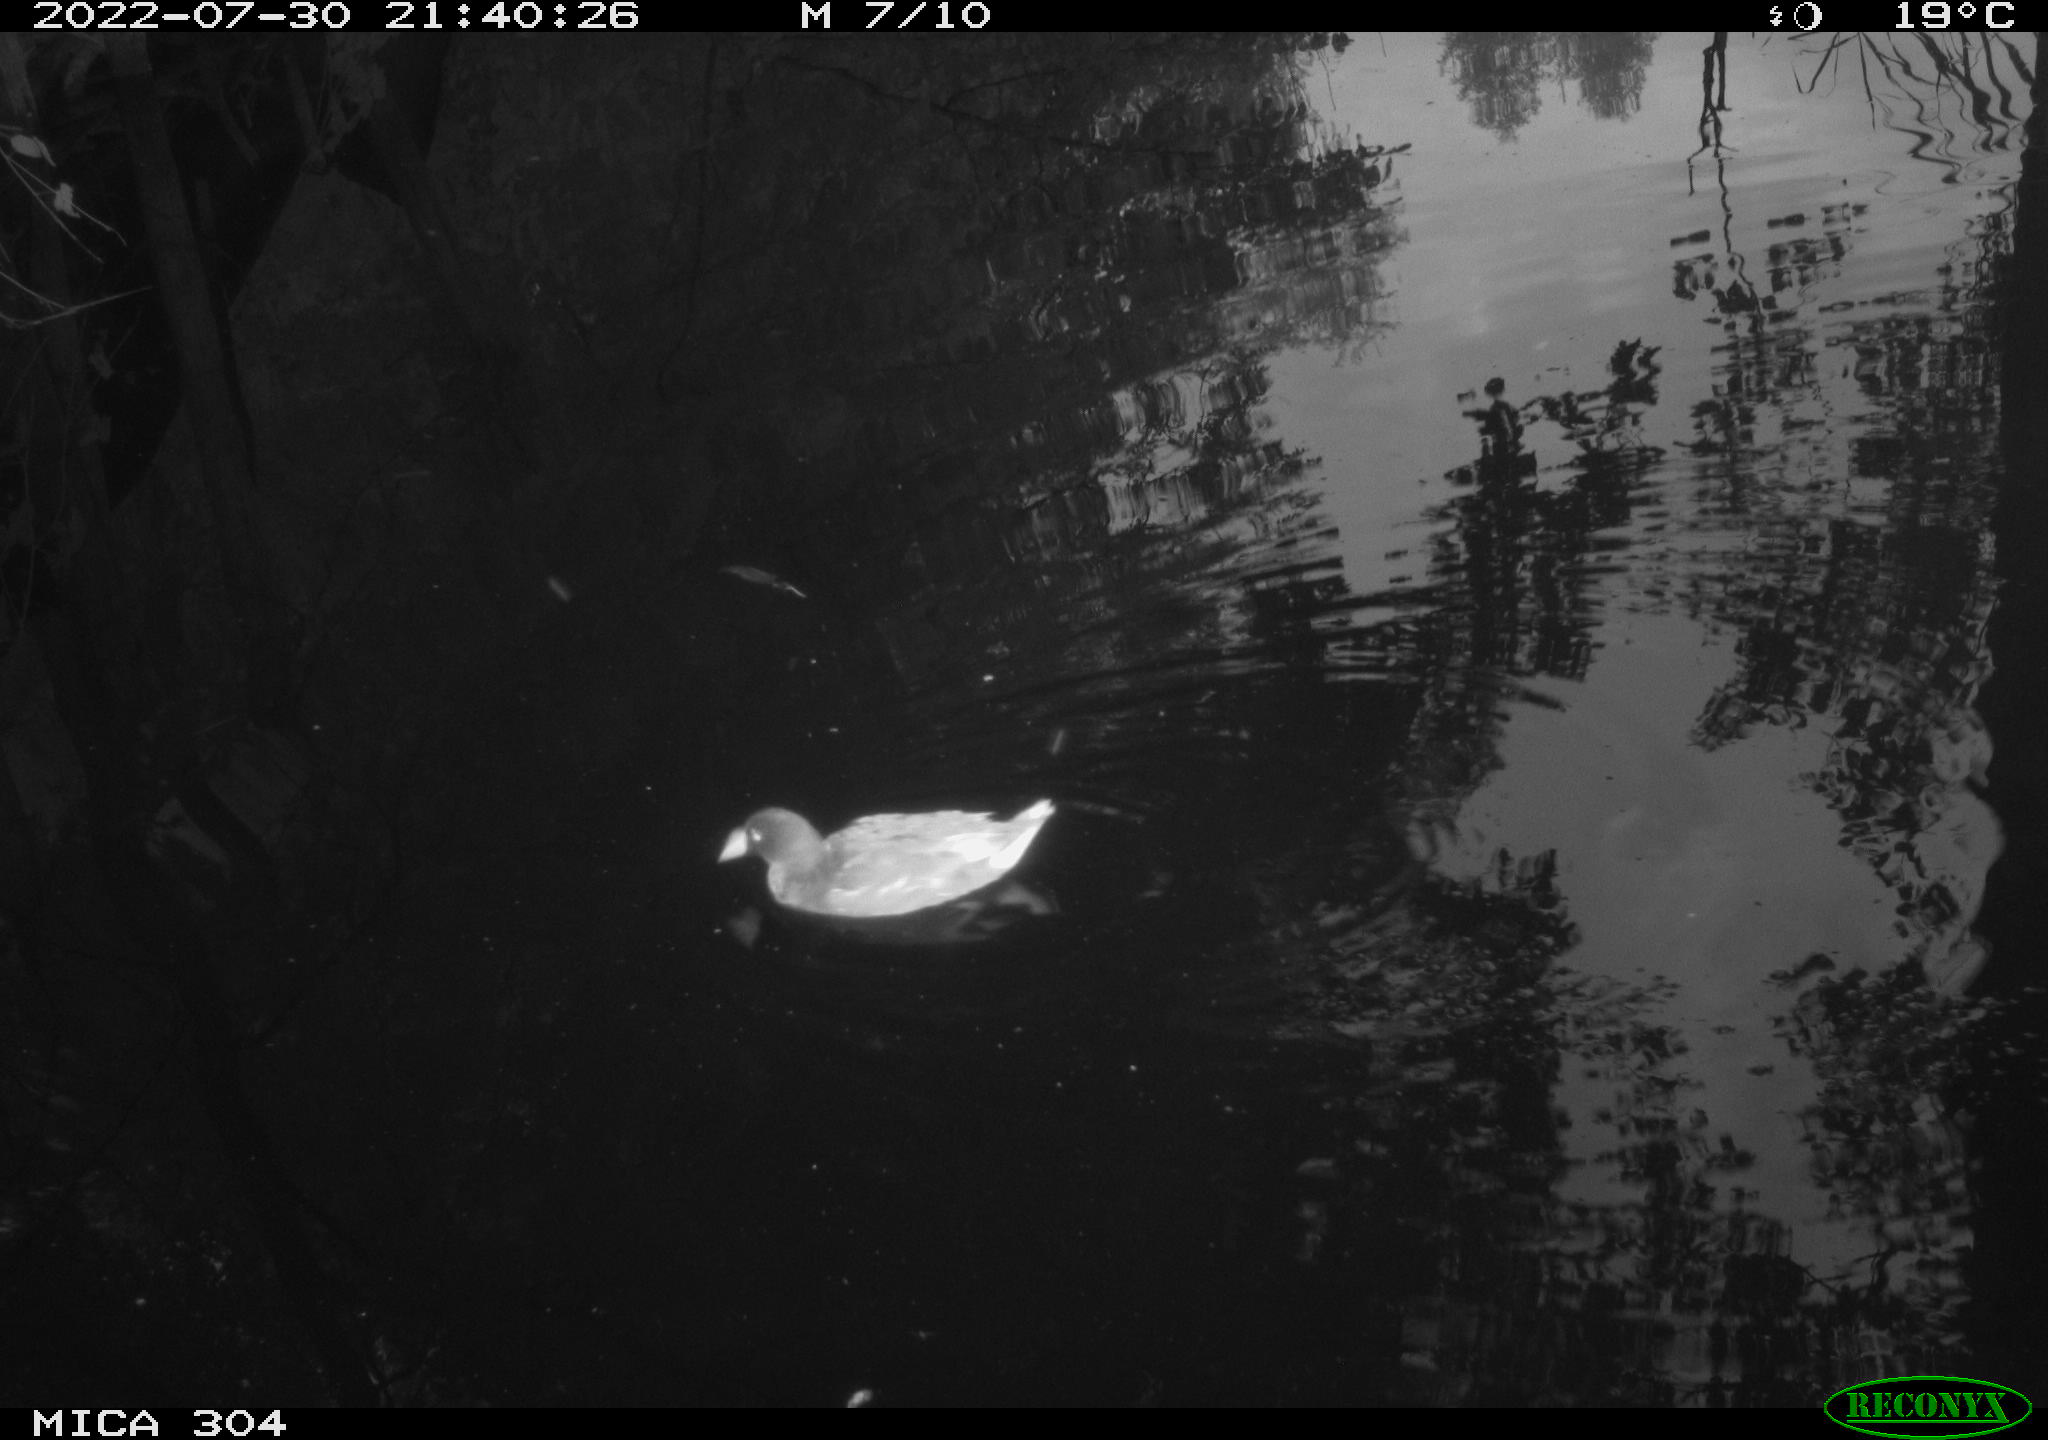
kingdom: Animalia
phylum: Chordata
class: Aves
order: Gruiformes
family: Rallidae
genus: Gallinula
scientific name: Gallinula chloropus
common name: Common moorhen
